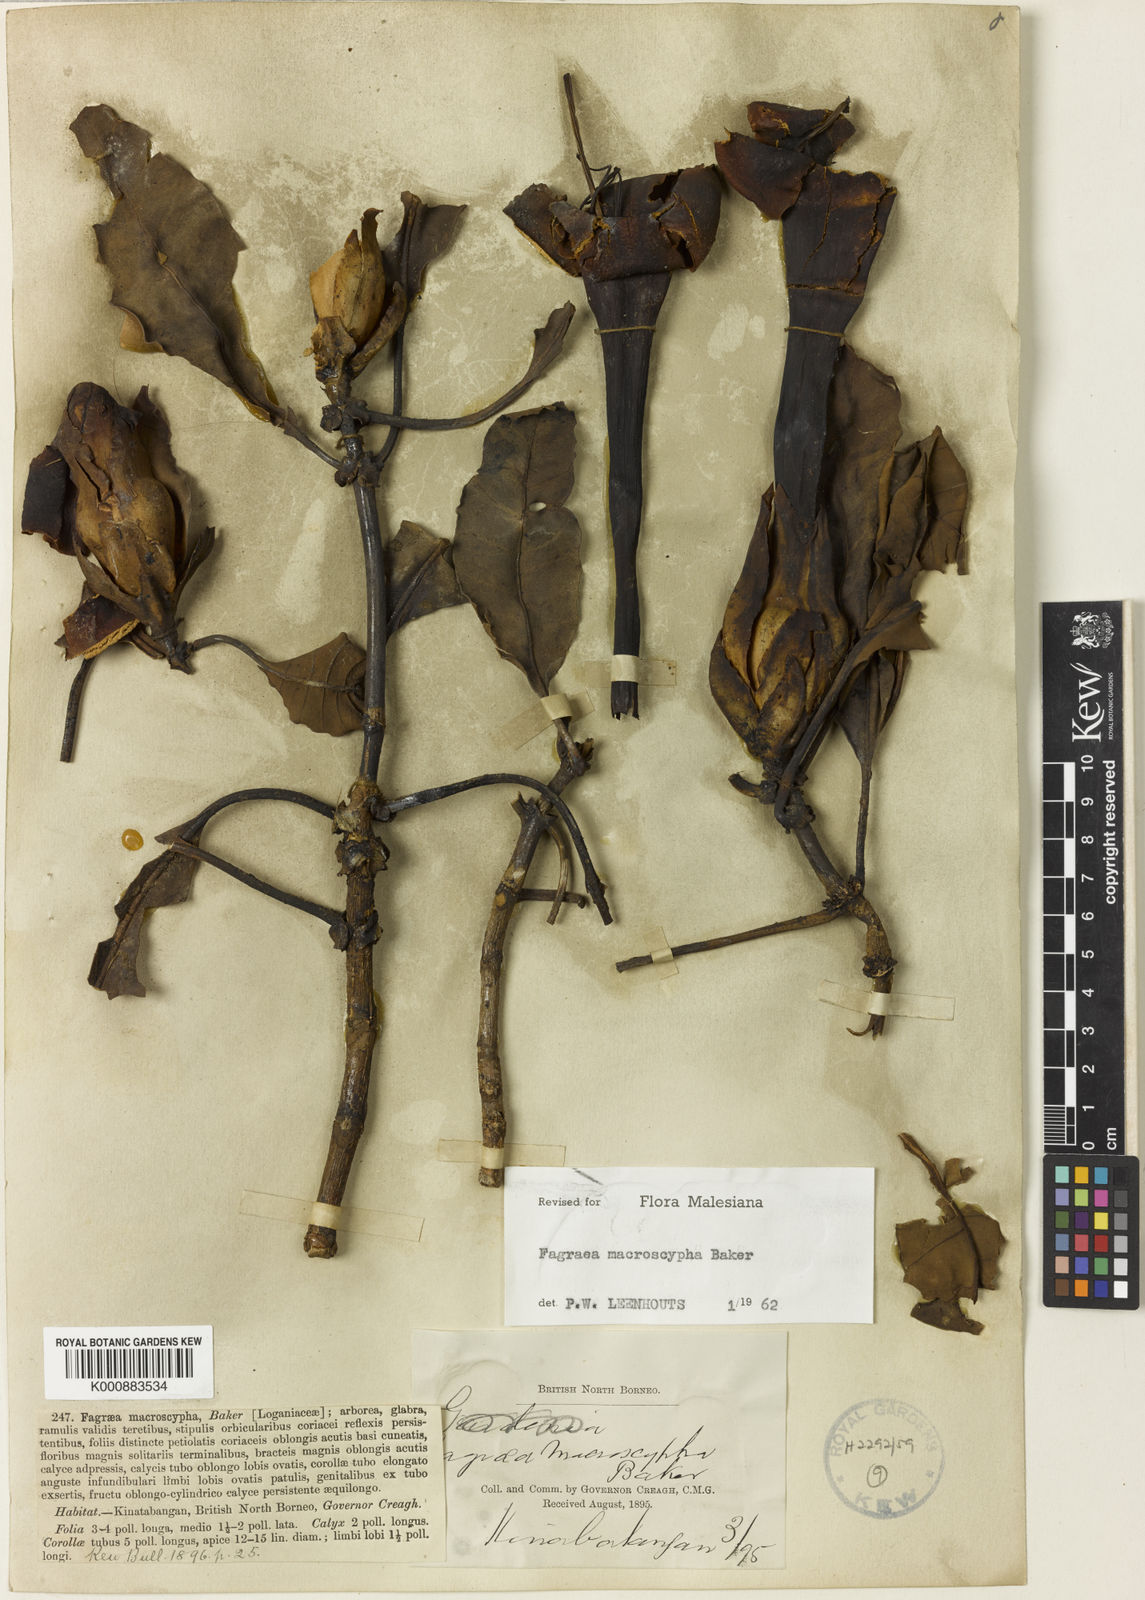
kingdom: Plantae
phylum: Tracheophyta
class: Magnoliopsida
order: Gentianales
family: Gentianaceae
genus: Fagraea
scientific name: Fagraea macroscypha
